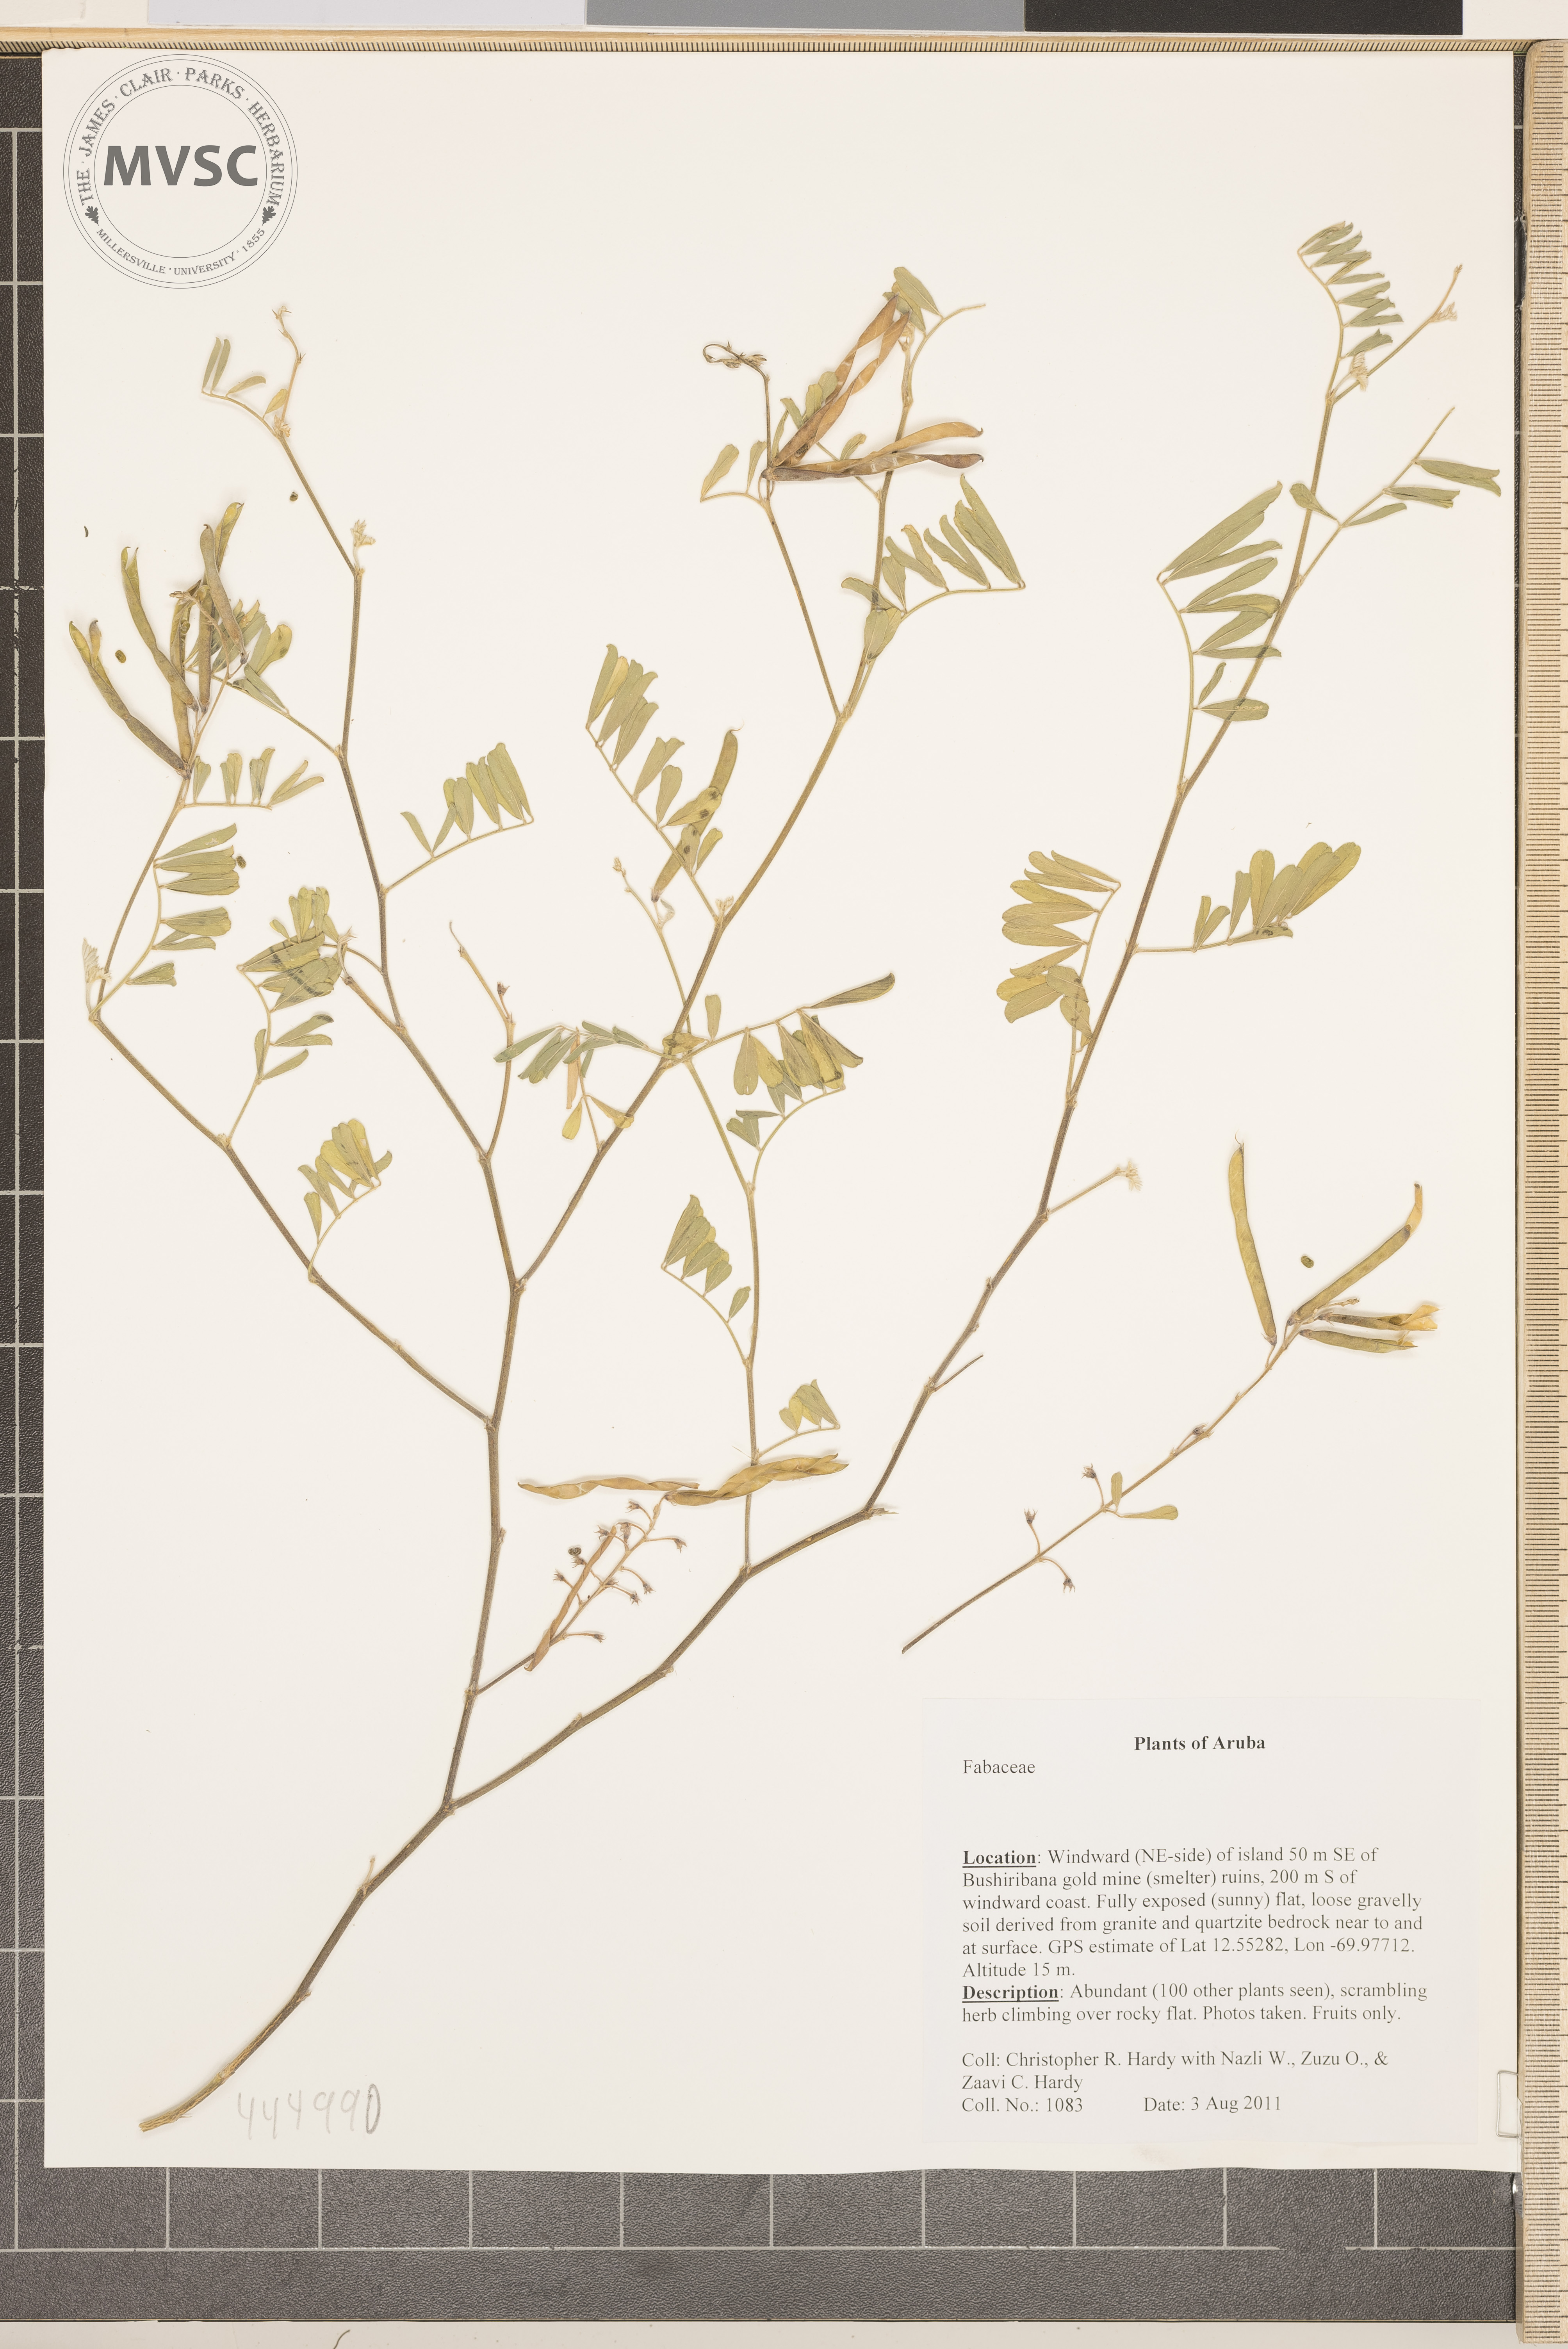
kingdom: Plantae
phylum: Tracheophyta
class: Magnoliopsida
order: Fabales
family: Fabaceae
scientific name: Fabaceae
